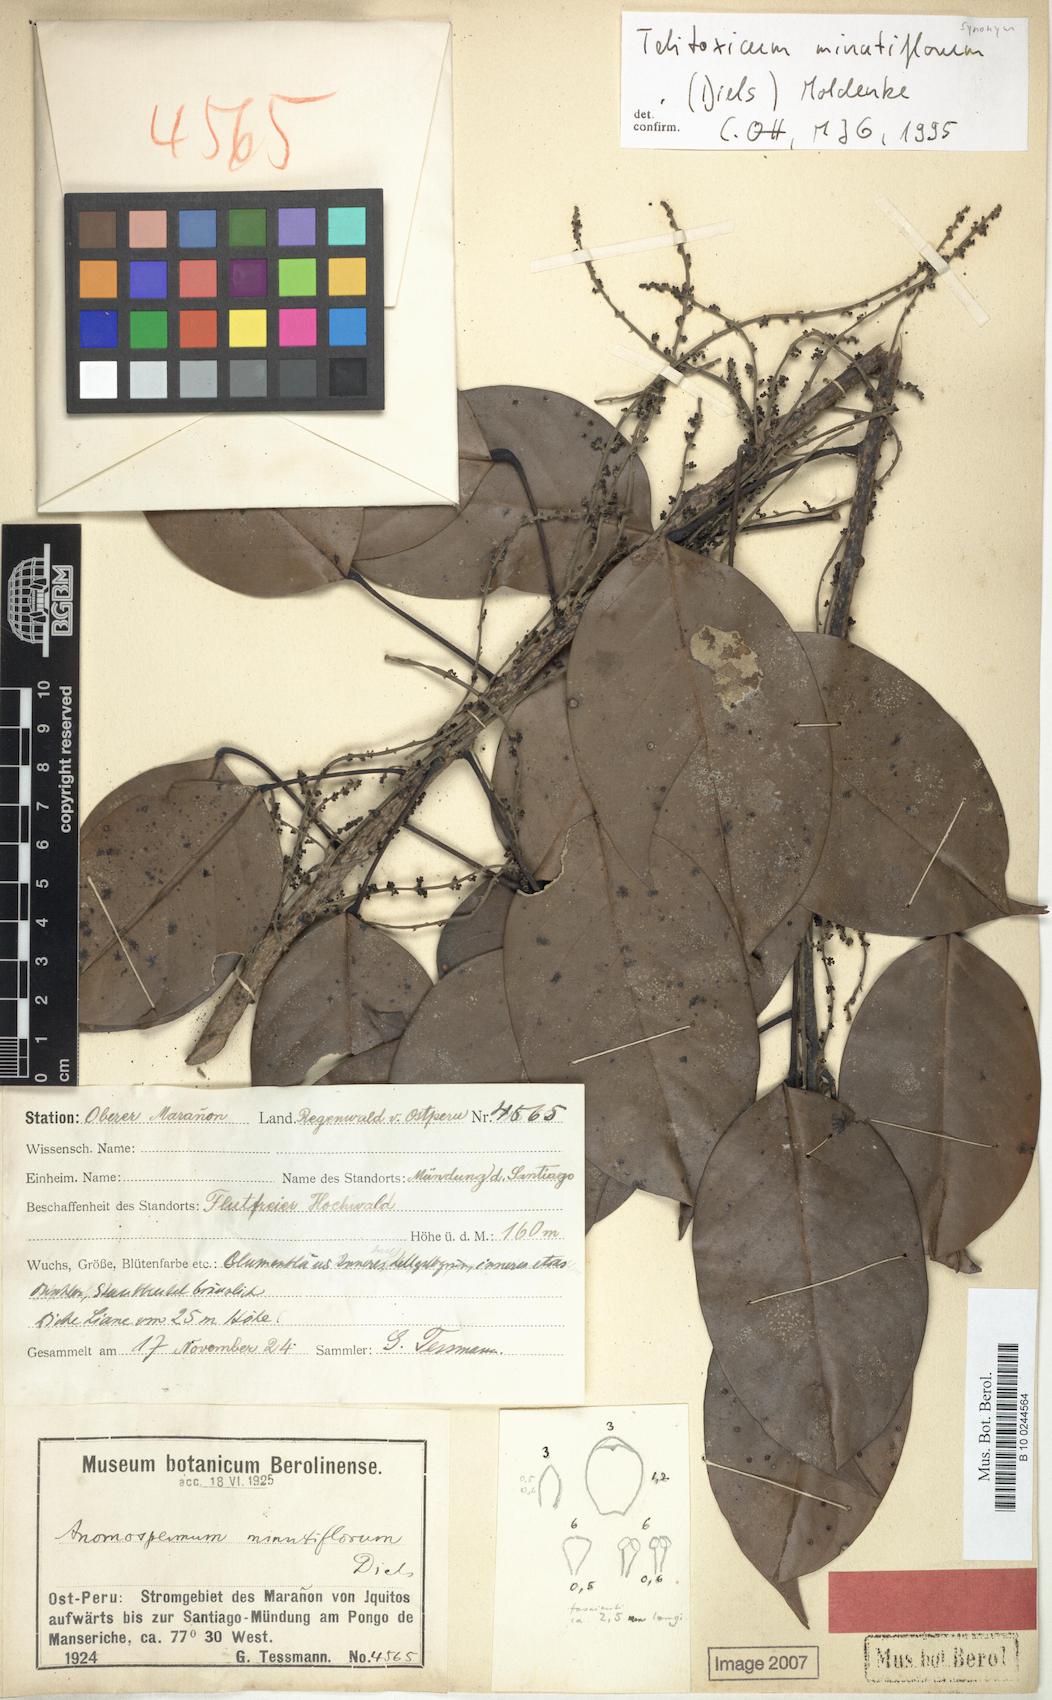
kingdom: Plantae
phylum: Tracheophyta
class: Magnoliopsida
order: Ranunculales
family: Menispermaceae
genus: Telitoxicum
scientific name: Telitoxicum minutiflorum
